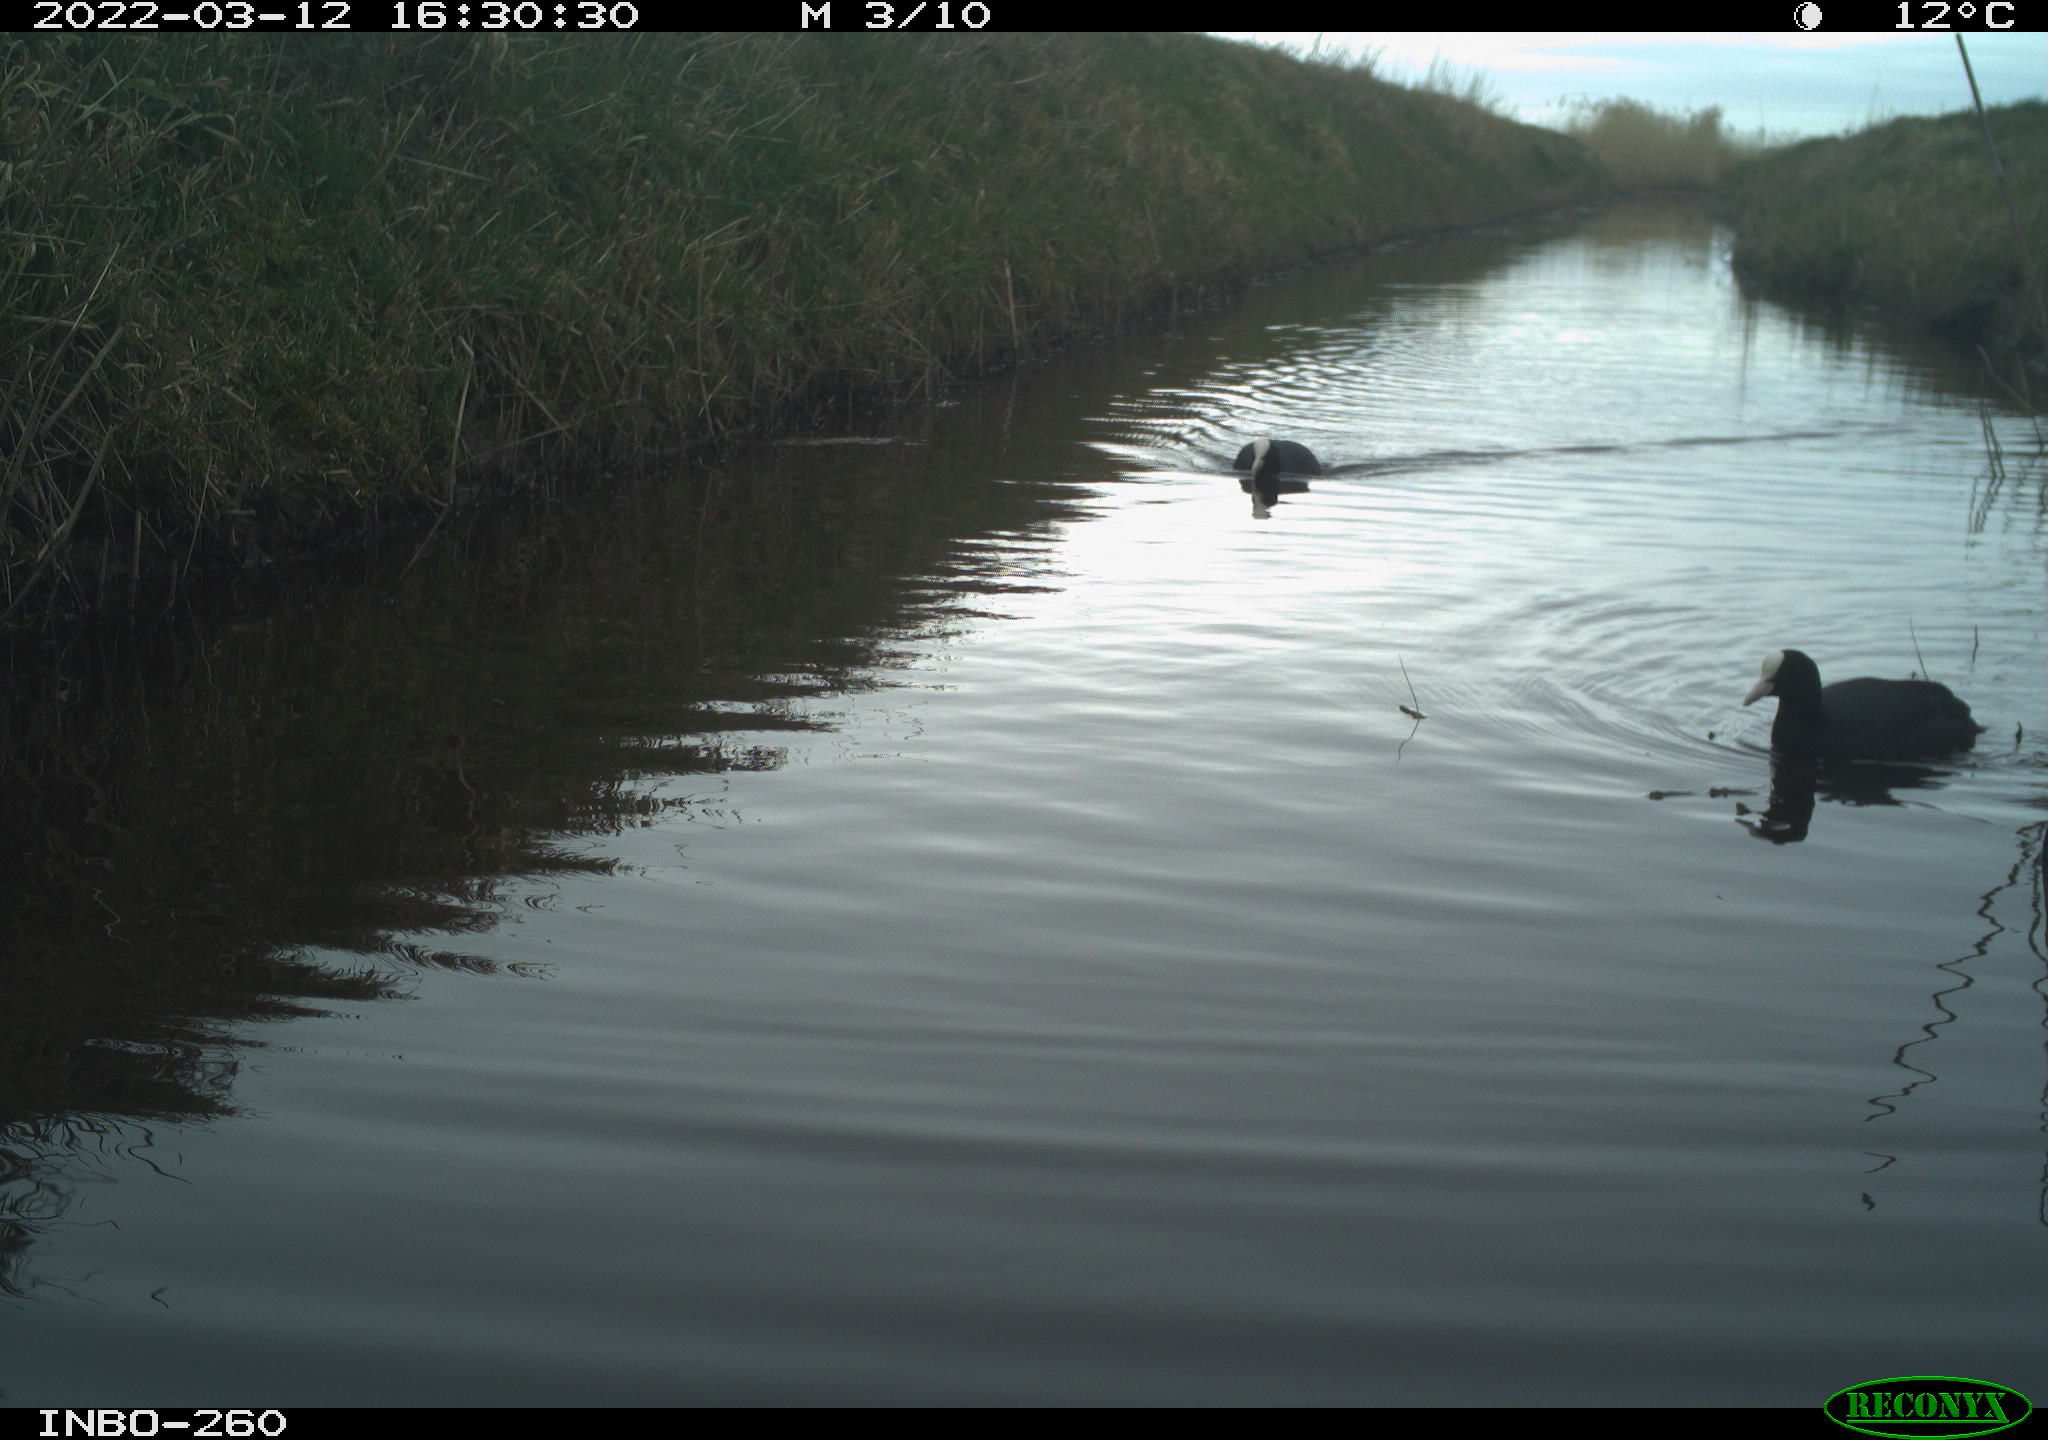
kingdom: Animalia
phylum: Chordata
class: Aves
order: Gruiformes
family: Rallidae
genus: Fulica
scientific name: Fulica atra
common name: Eurasian coot
